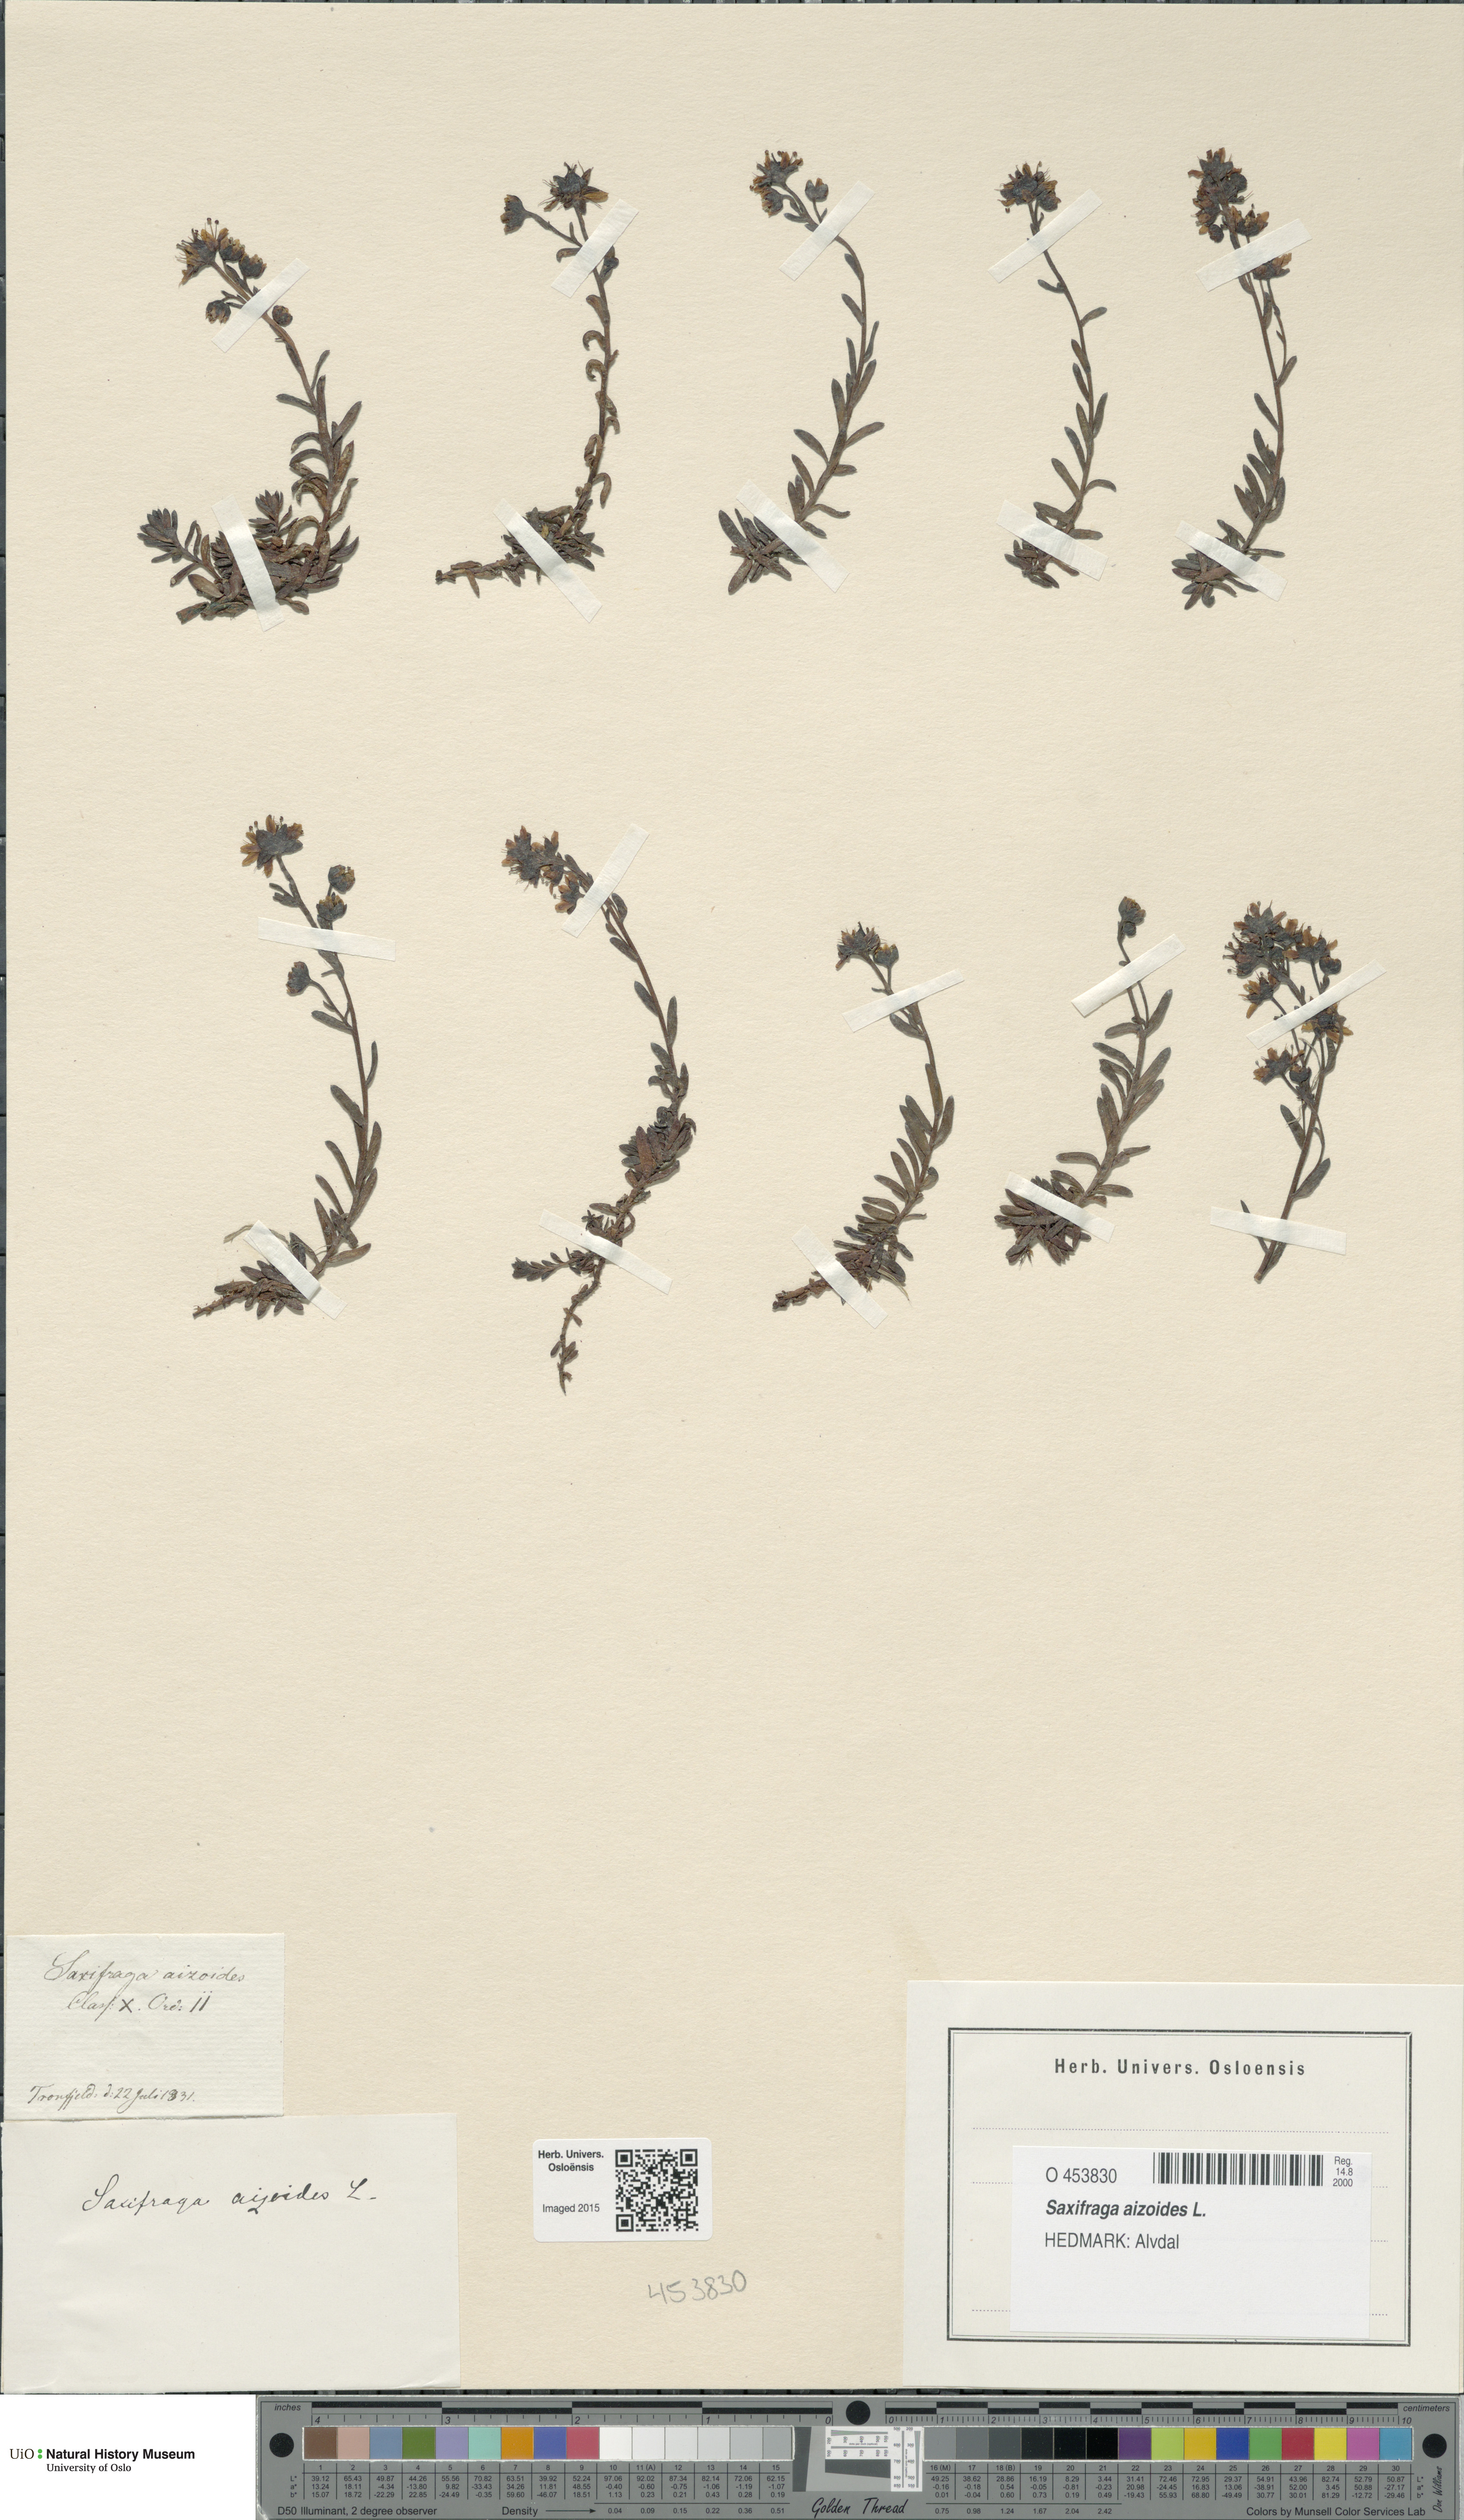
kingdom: Plantae
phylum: Tracheophyta
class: Magnoliopsida
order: Saxifragales
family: Saxifragaceae
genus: Saxifraga
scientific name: Saxifraga aizoides
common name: Yellow mountain saxifrage
